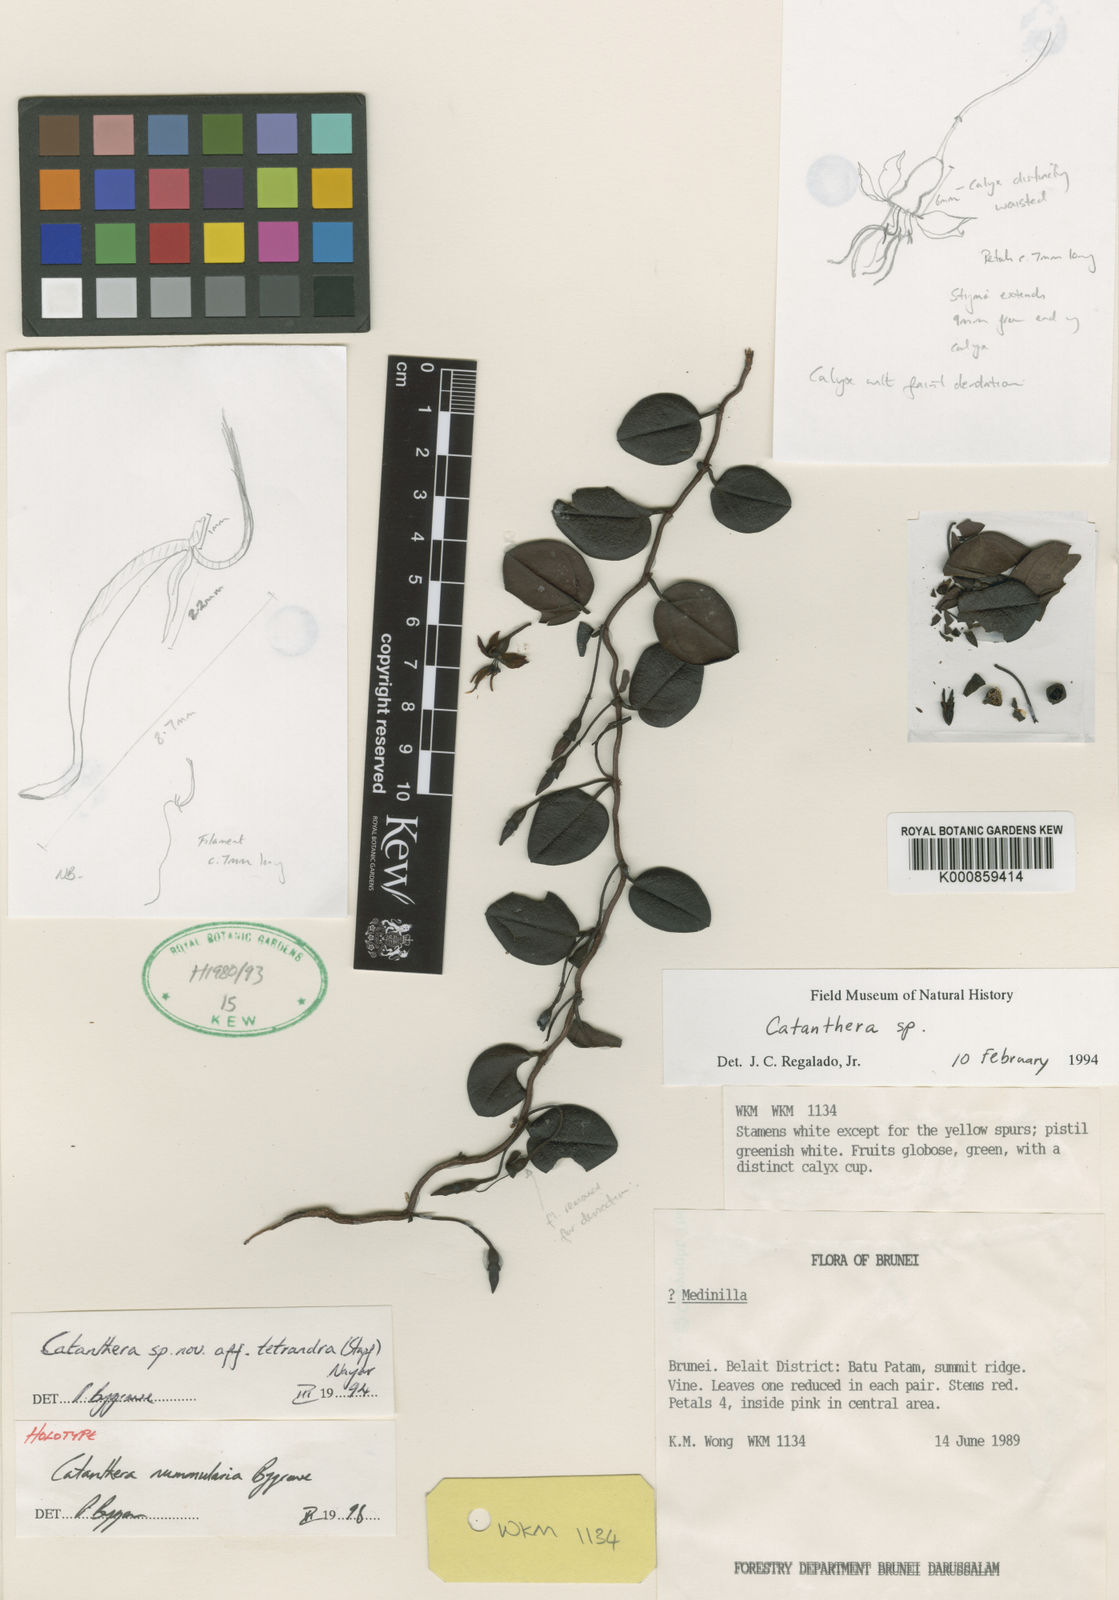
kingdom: Plantae
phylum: Tracheophyta
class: Magnoliopsida
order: Myrtales
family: Melastomataceae
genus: Catanthera
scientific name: Catanthera nummularia
